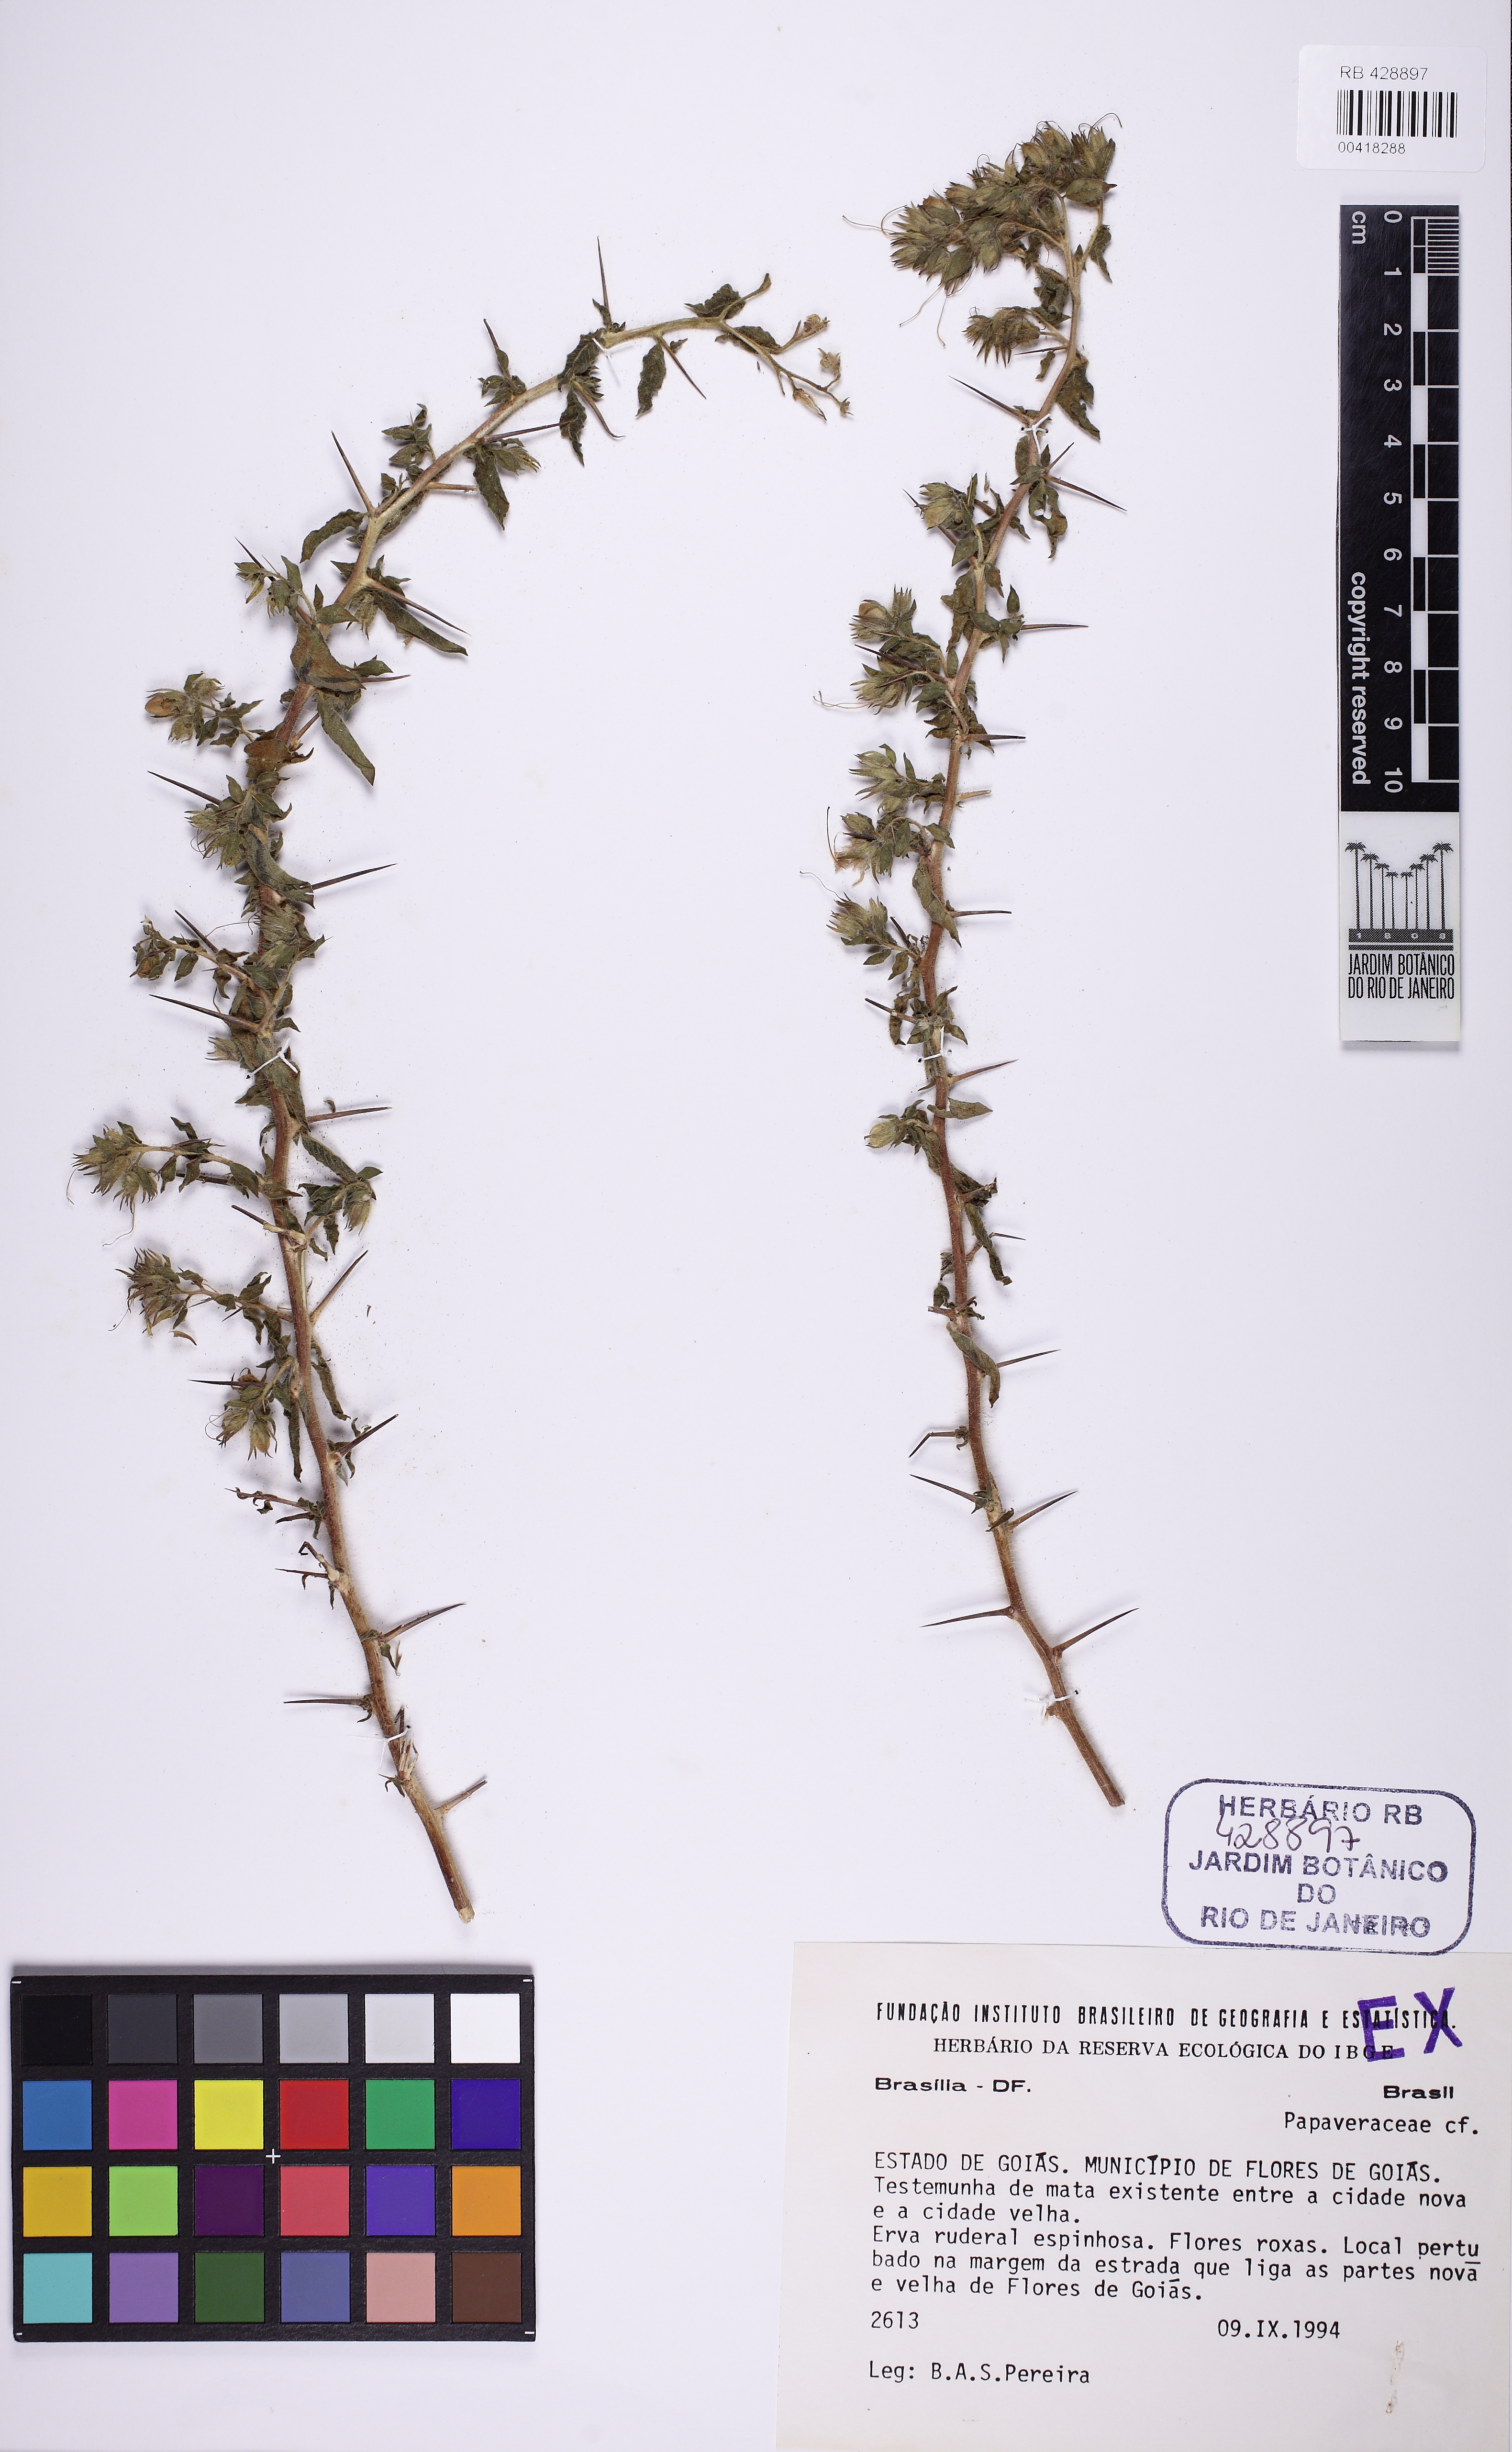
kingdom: Plantae
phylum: Tracheophyta
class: Magnoliopsida
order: Ranunculales
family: Papaveraceae
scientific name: Papaveraceae
